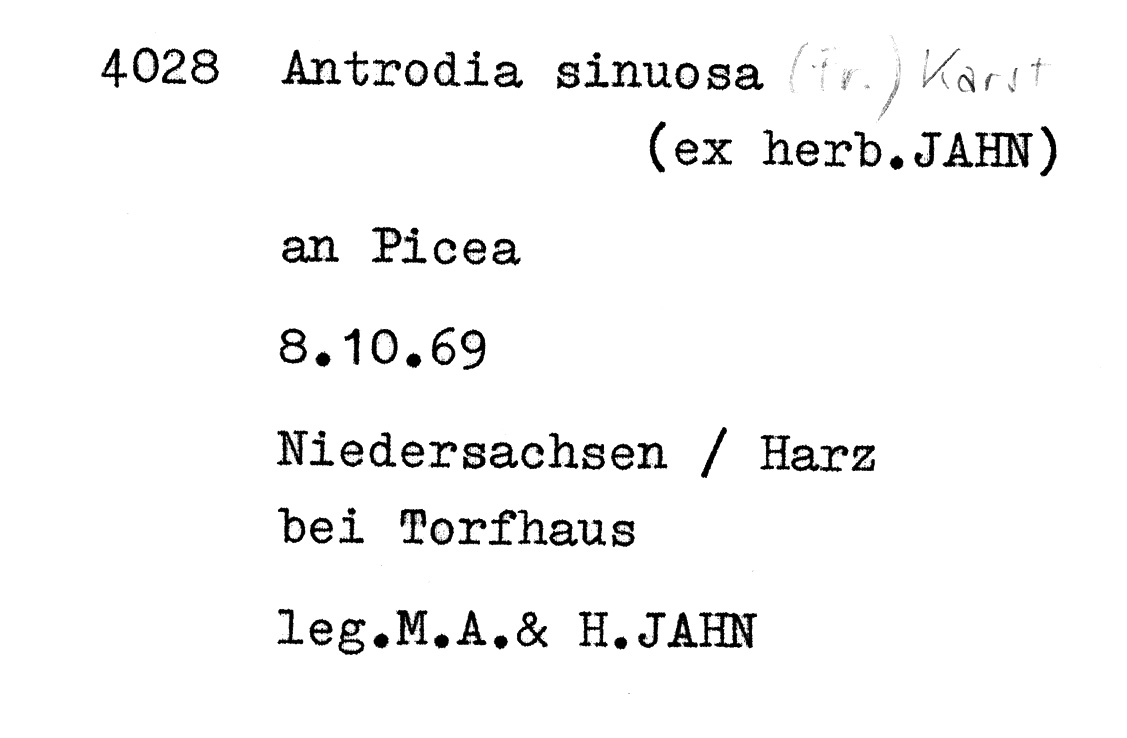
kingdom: Fungi
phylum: Basidiomycota
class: Agaricomycetes
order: Polyporales
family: Fomitopsidaceae
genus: Antrodia
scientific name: Antrodia sinuosa
